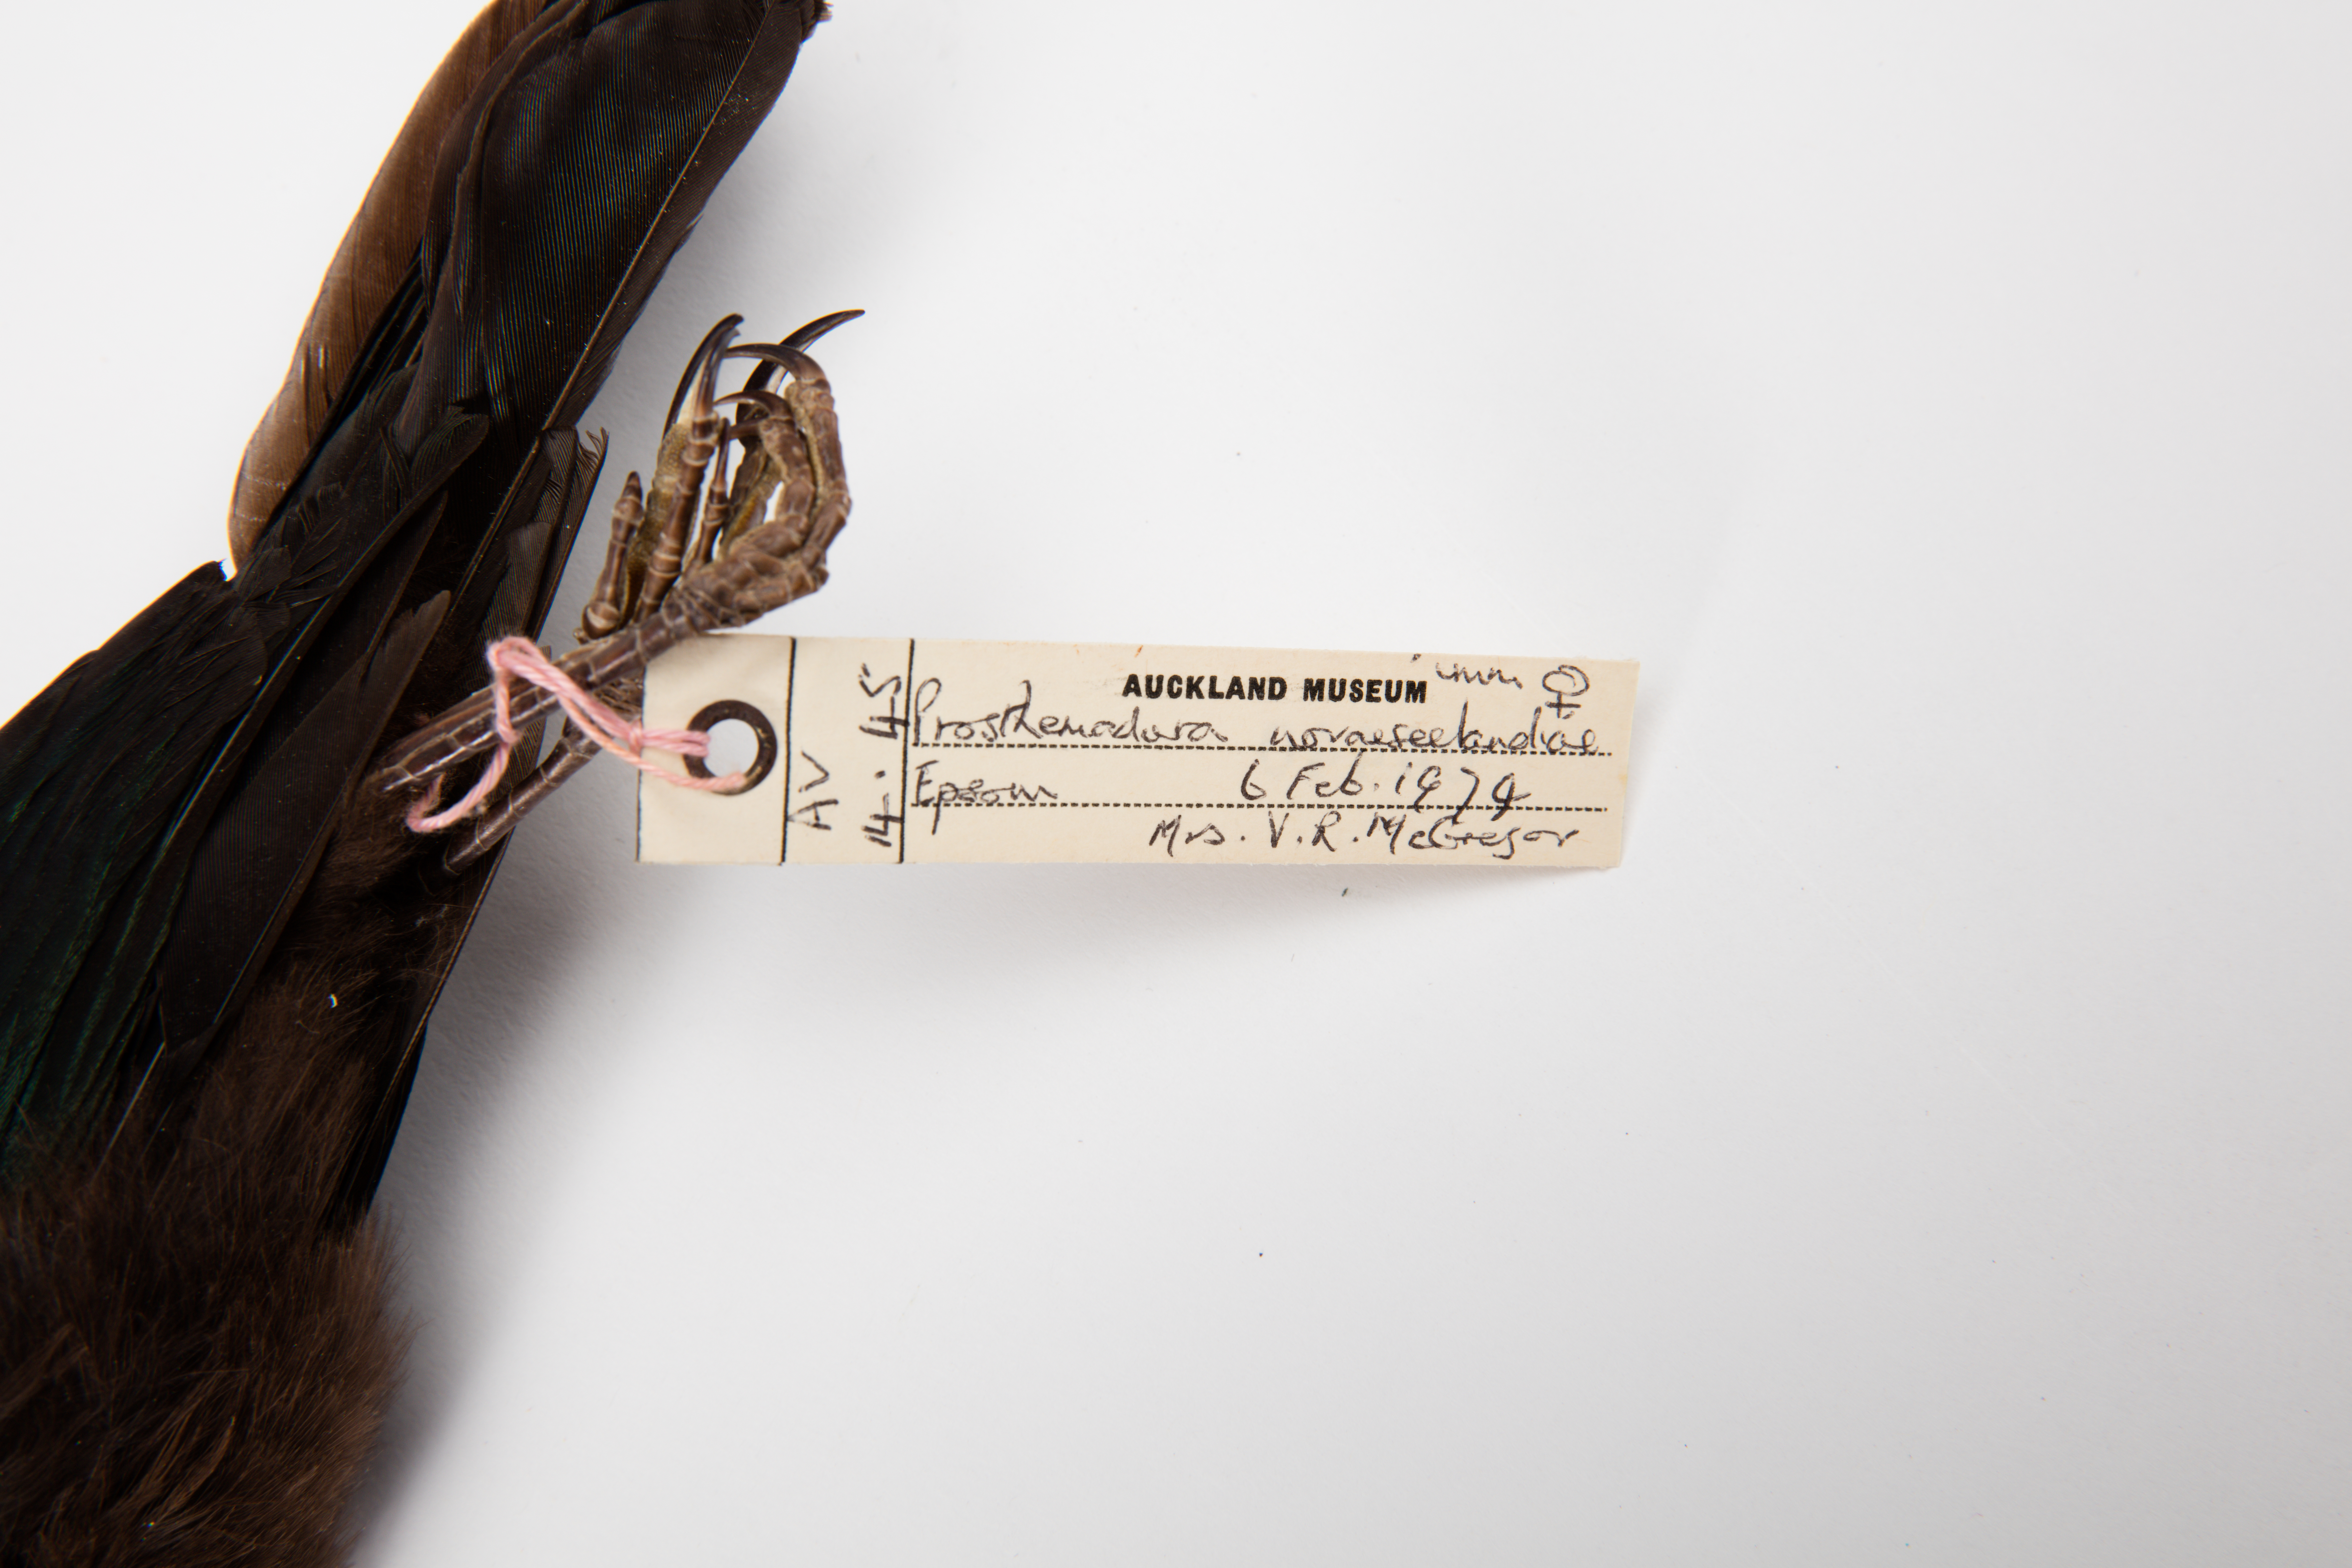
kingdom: Animalia
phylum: Chordata
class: Aves
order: Passeriformes
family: Meliphagidae
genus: Prosthemadera
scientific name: Prosthemadera novaeseelandiae
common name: Tui
